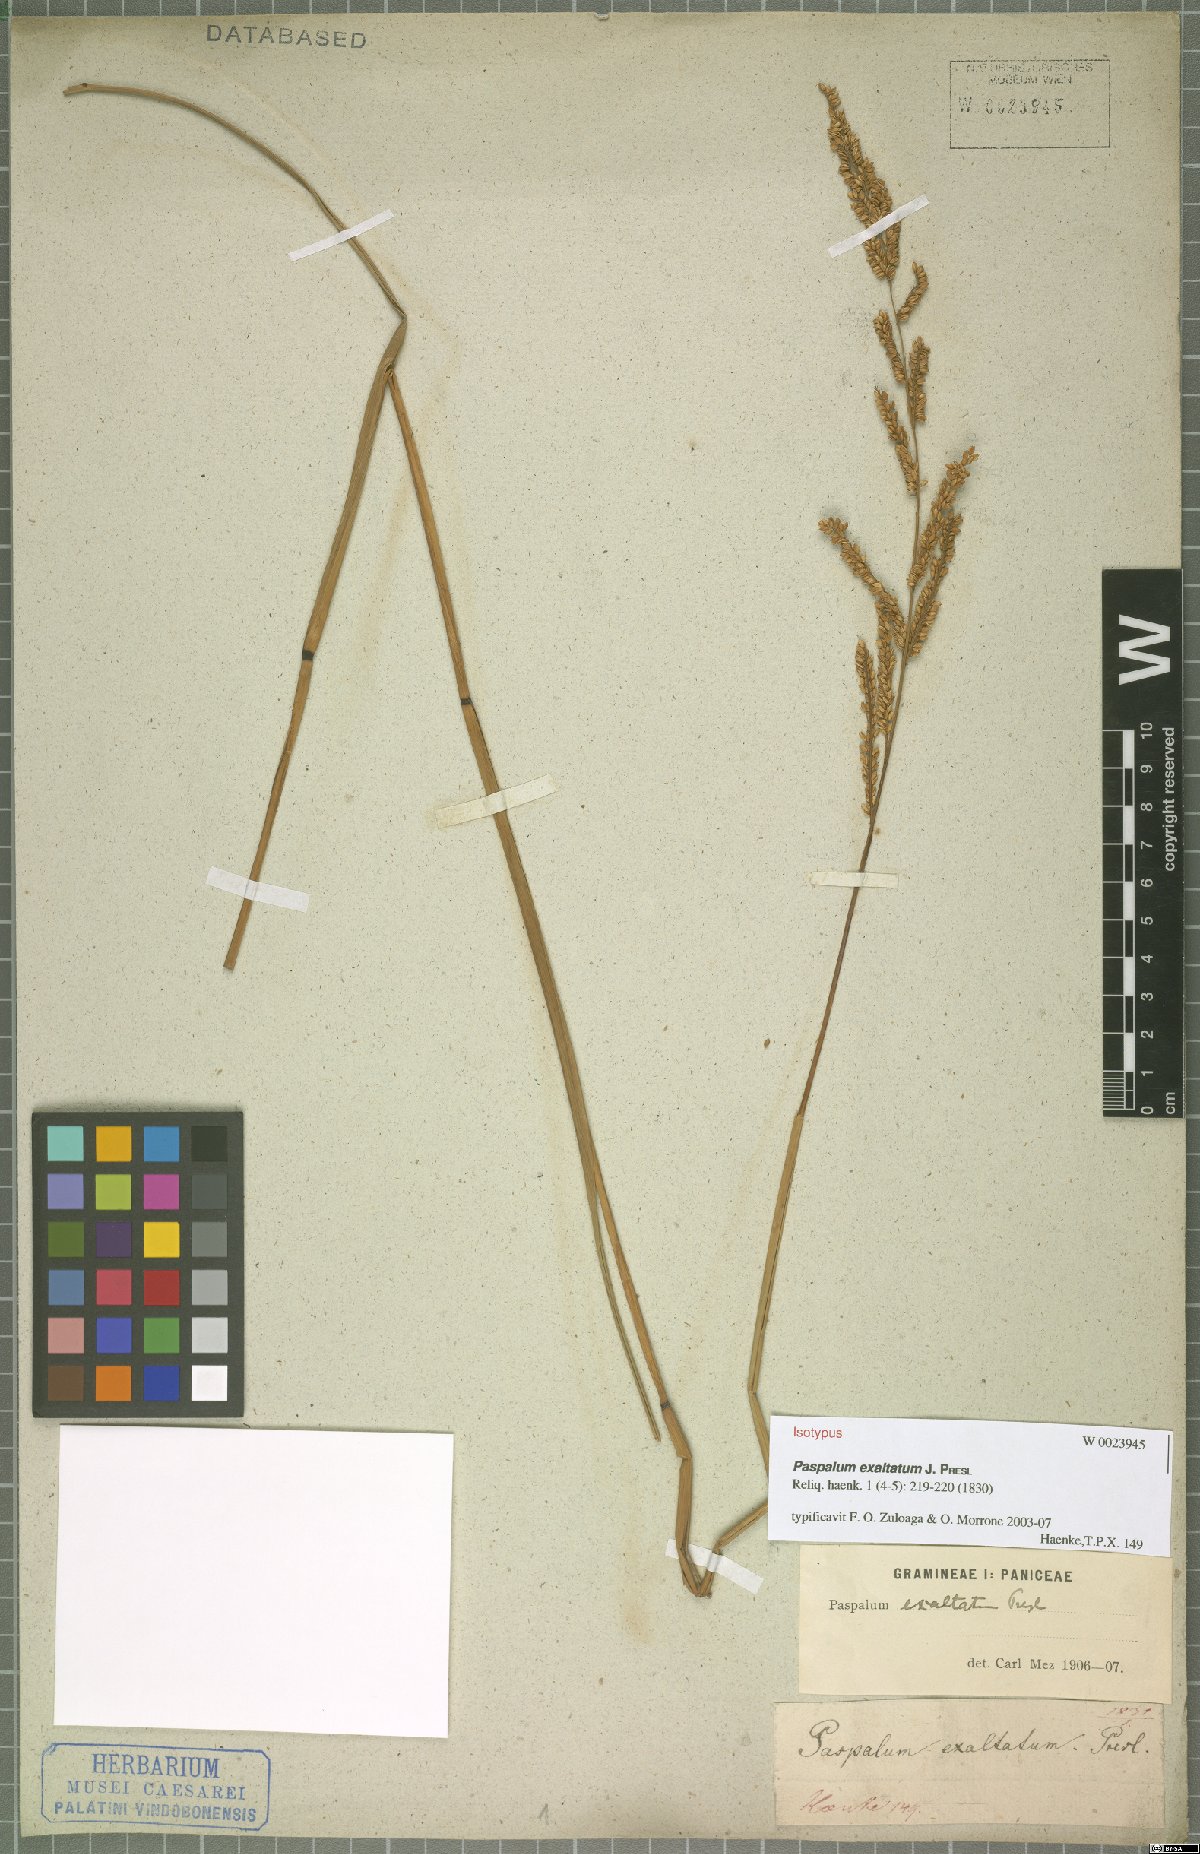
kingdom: Plantae
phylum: Tracheophyta
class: Liliopsida
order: Poales
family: Poaceae
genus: Paspalum
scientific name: Paspalum exaltatum
